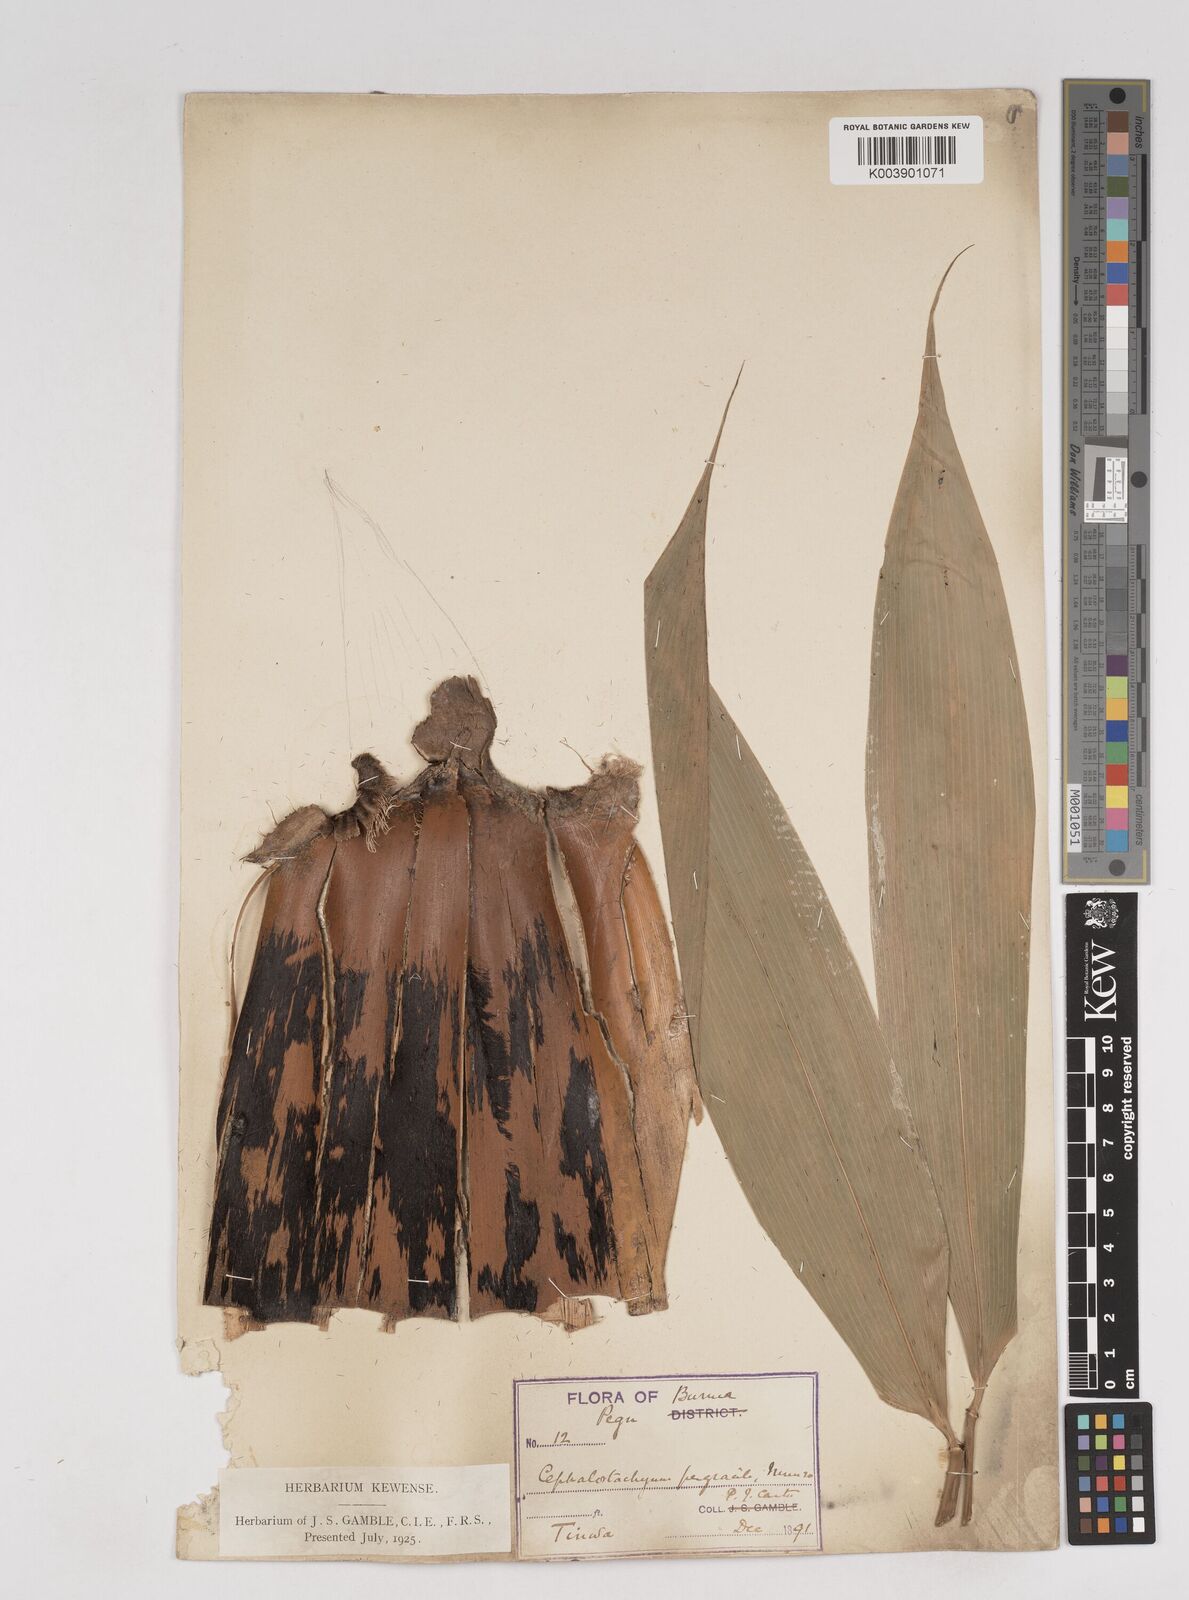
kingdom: Plantae
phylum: Tracheophyta
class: Liliopsida
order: Poales
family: Poaceae
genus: Schizostachyum
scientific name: Schizostachyum pergracile
